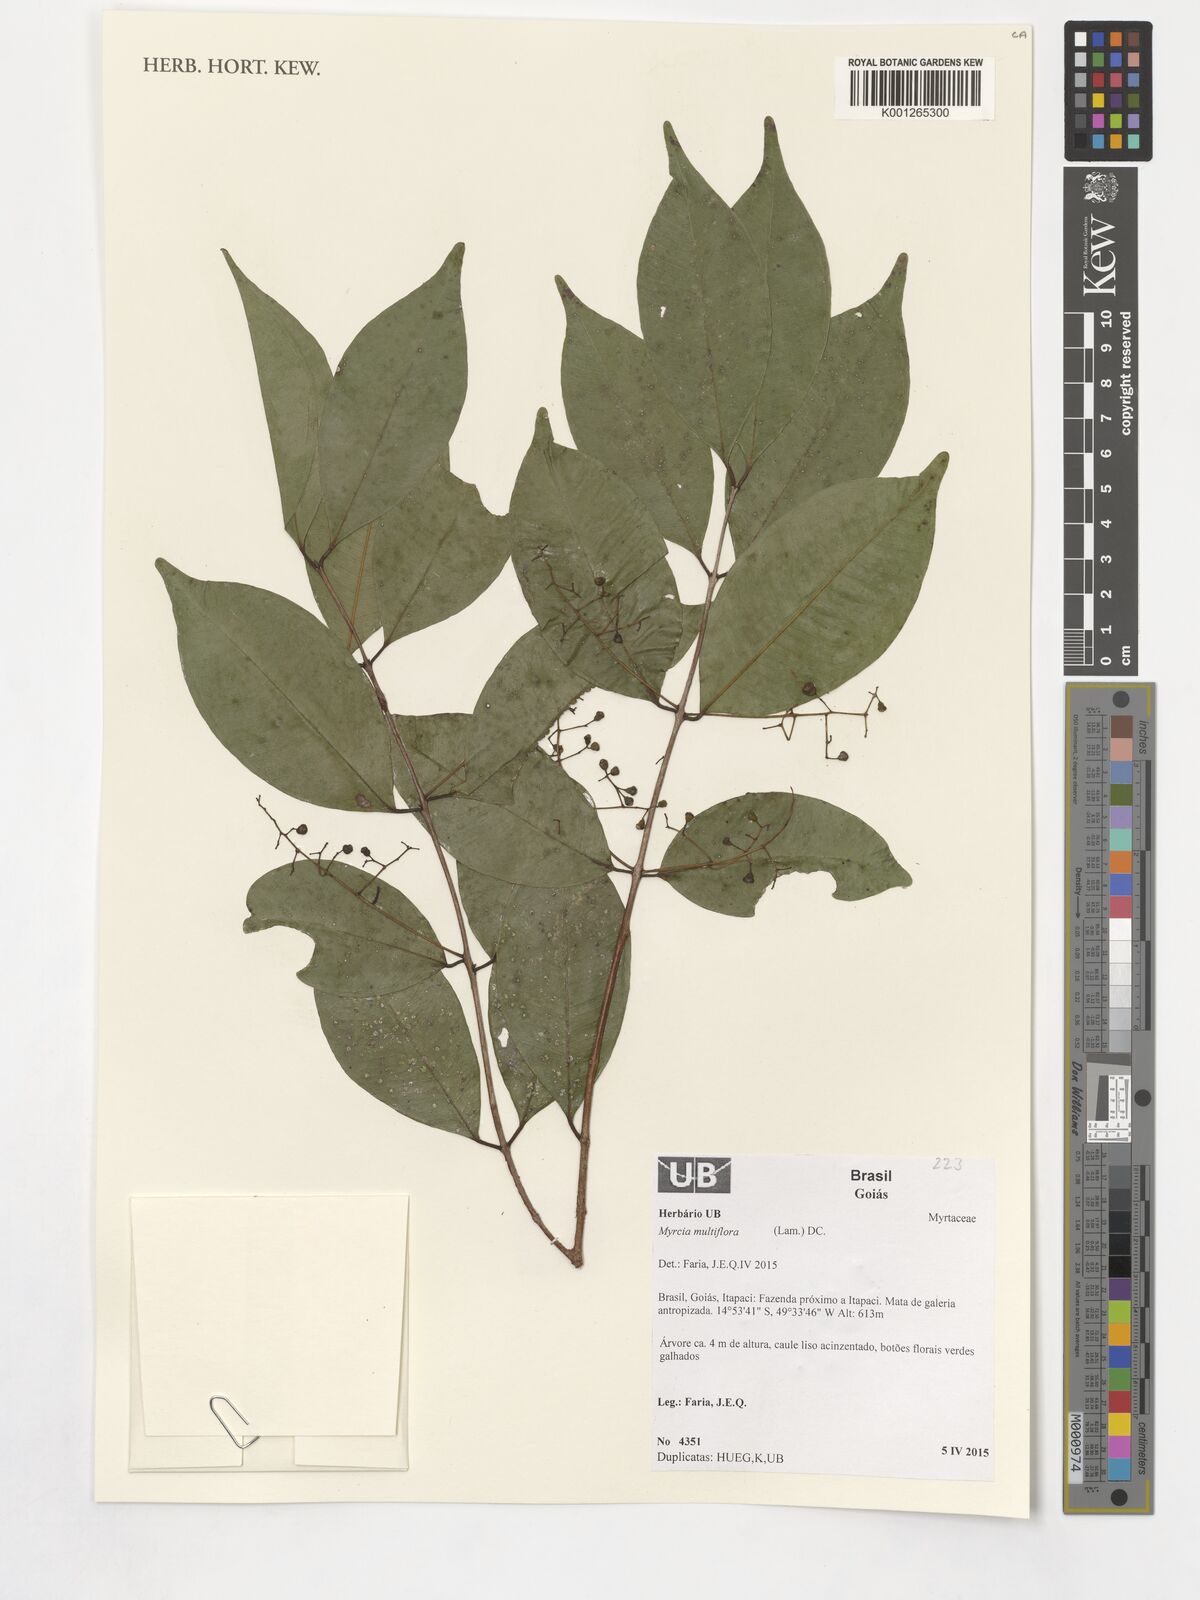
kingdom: Plantae
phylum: Tracheophyta
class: Magnoliopsida
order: Myrtales
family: Myrtaceae
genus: Myrcia
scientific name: Myrcia multiflora
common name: Pedra hume
